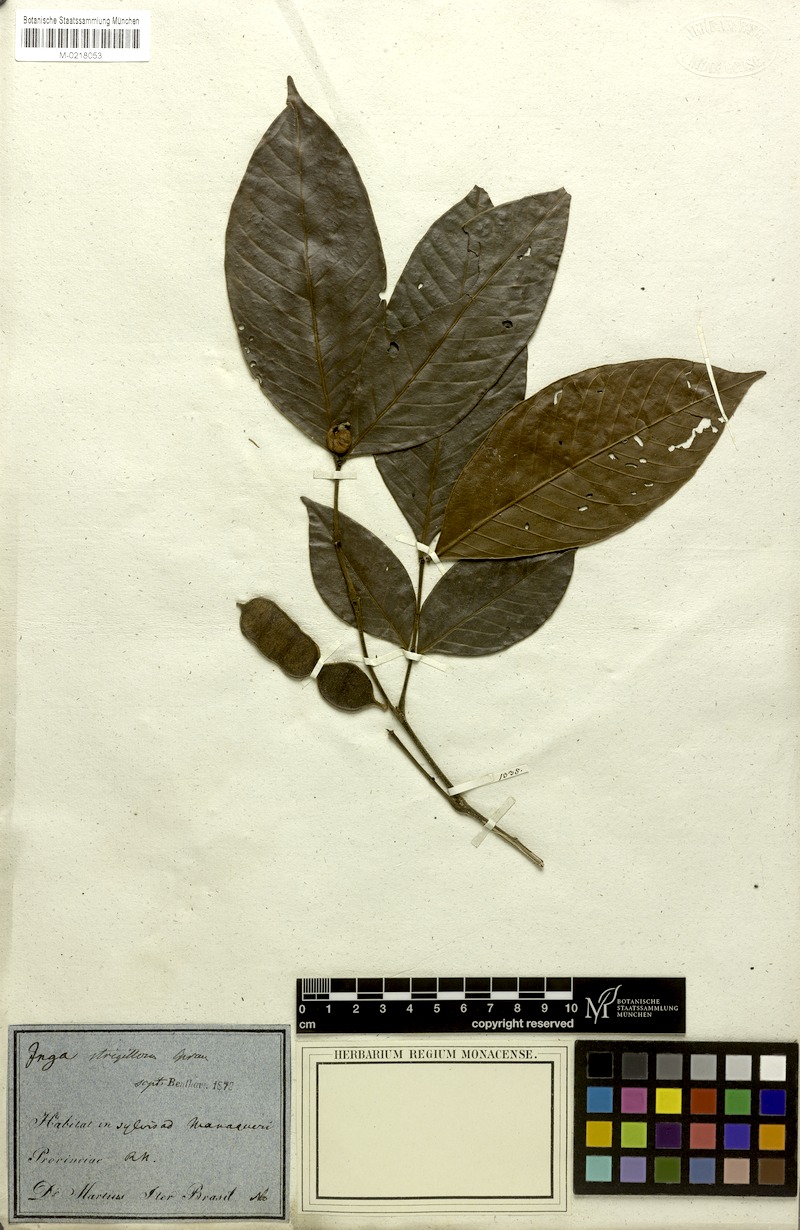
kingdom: Plantae
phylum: Tracheophyta
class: Magnoliopsida
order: Fabales
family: Fabaceae
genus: Inga
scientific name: Inga punctata
